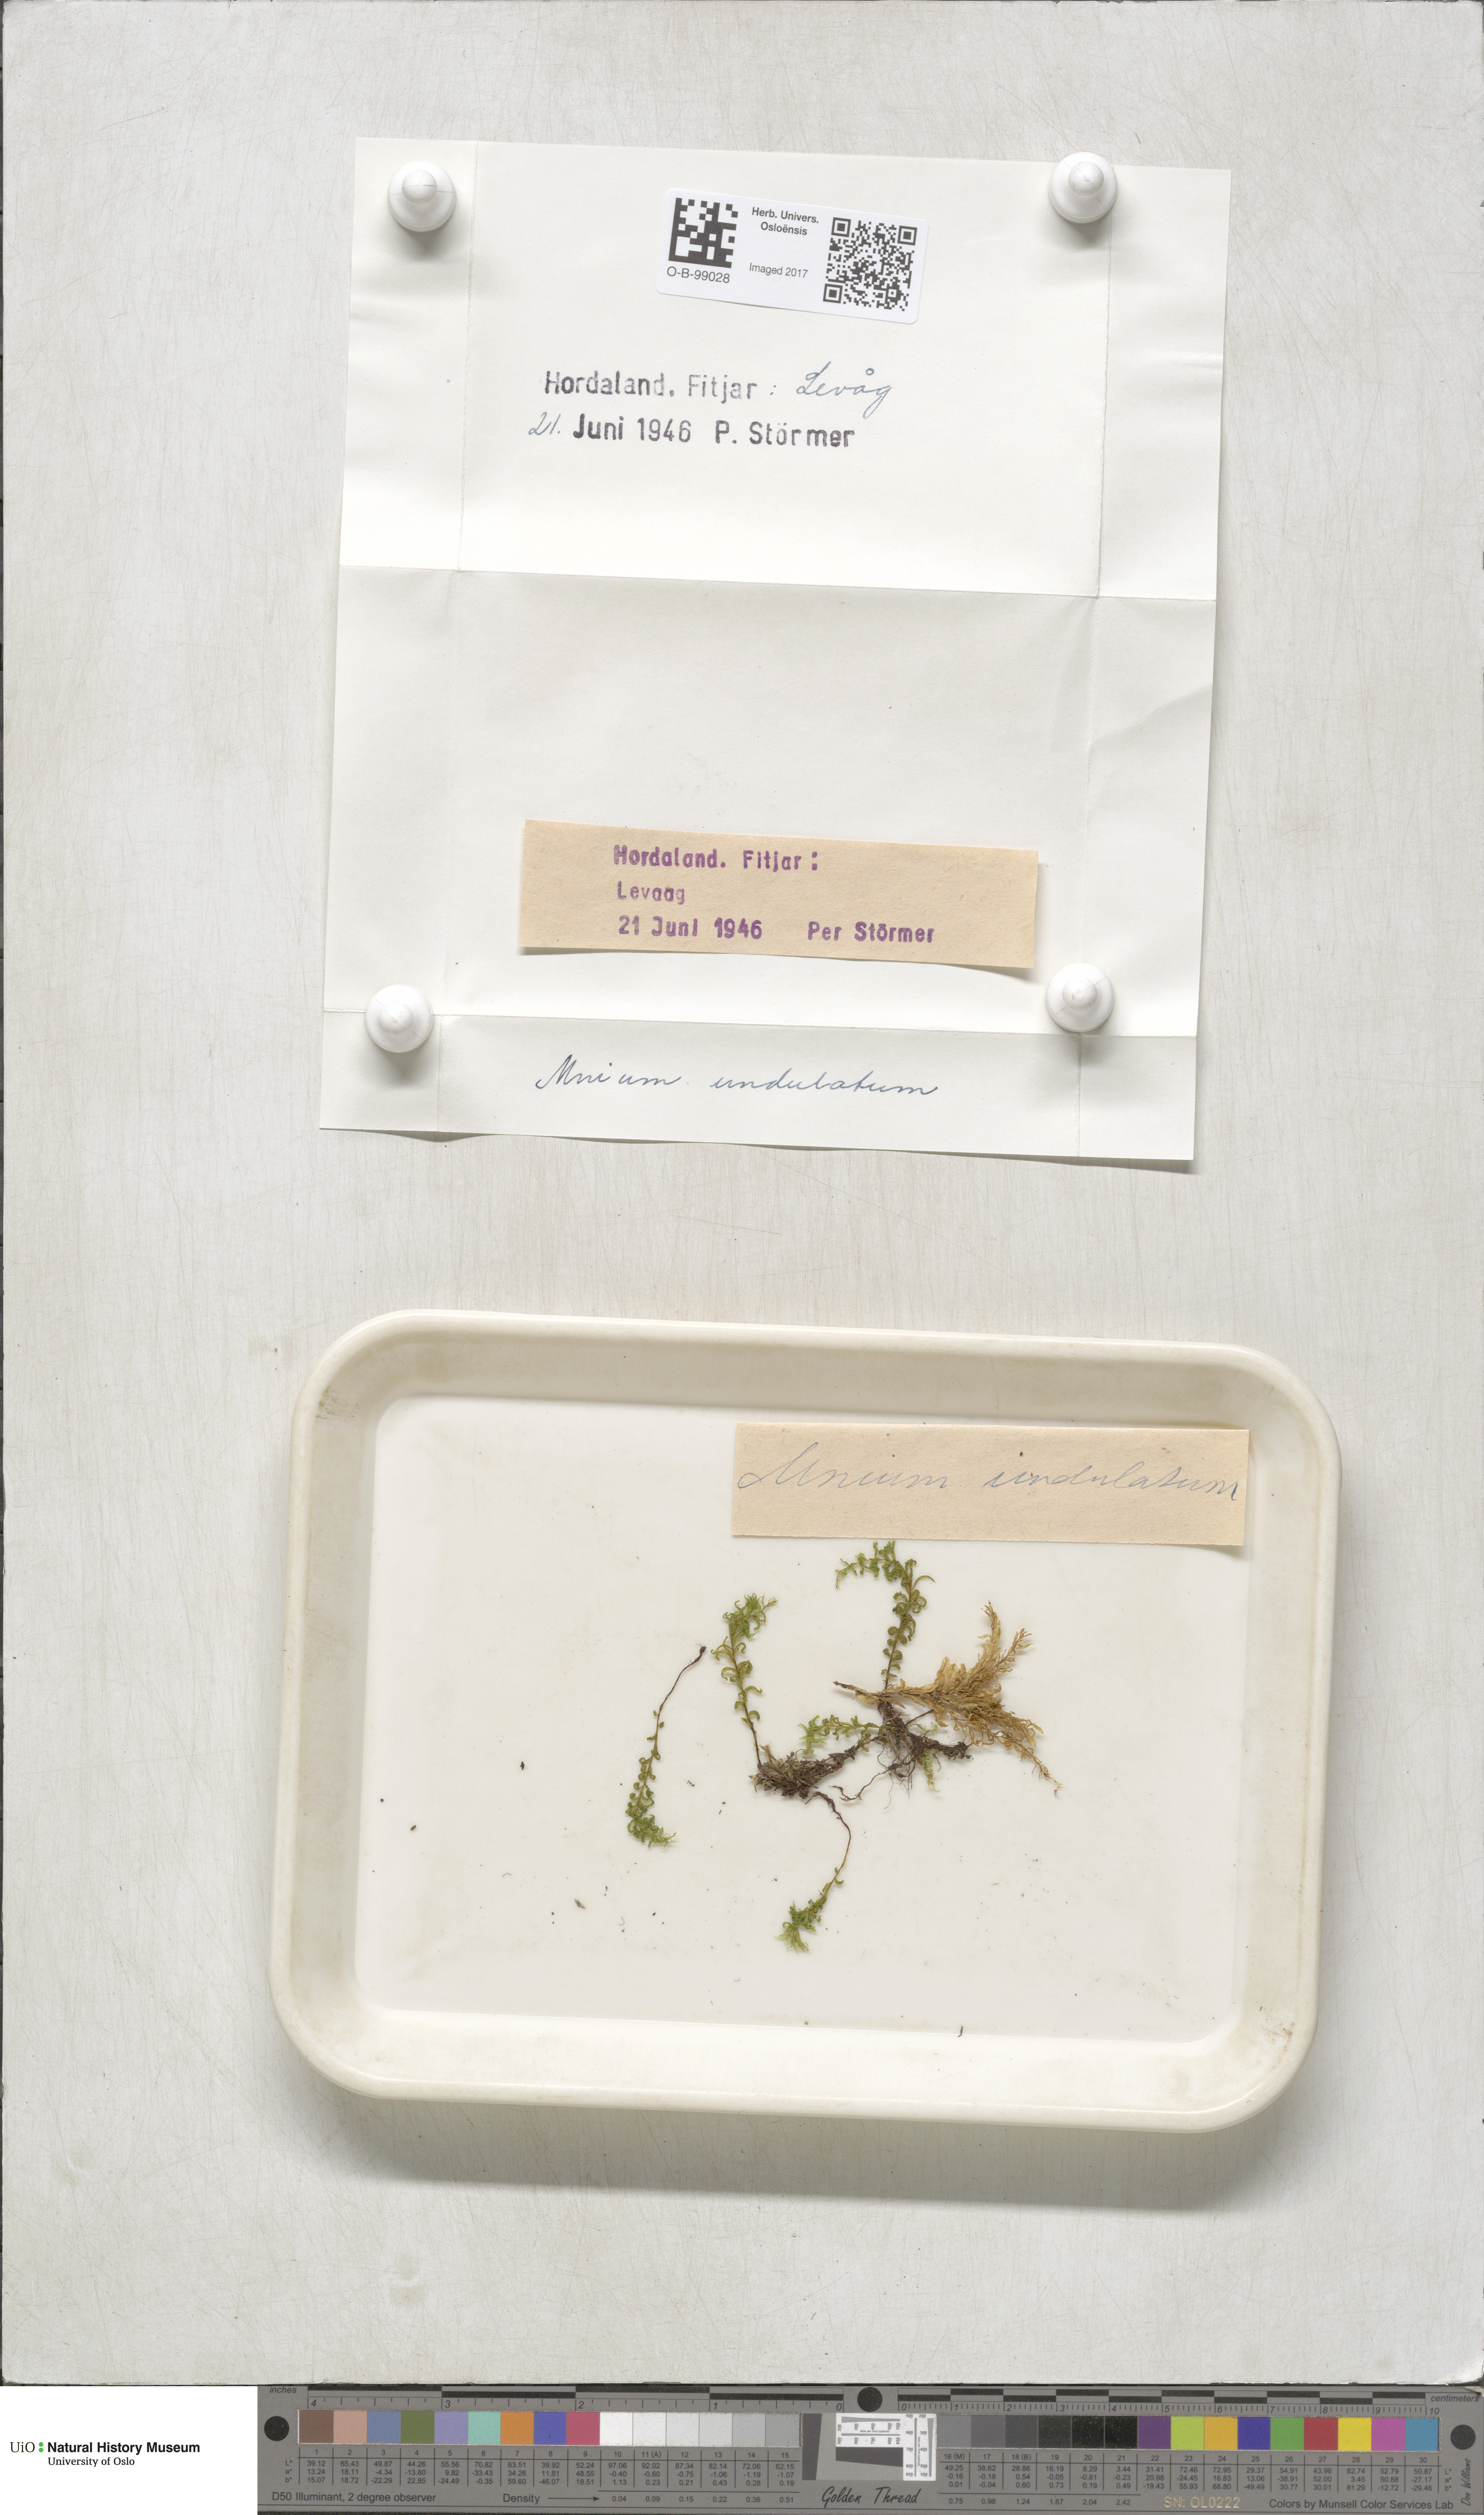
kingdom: Plantae
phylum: Bryophyta
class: Bryopsida
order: Bryales
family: Mniaceae
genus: Plagiomnium
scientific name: Plagiomnium undulatum
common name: Hart's-tongue thyme-moss
